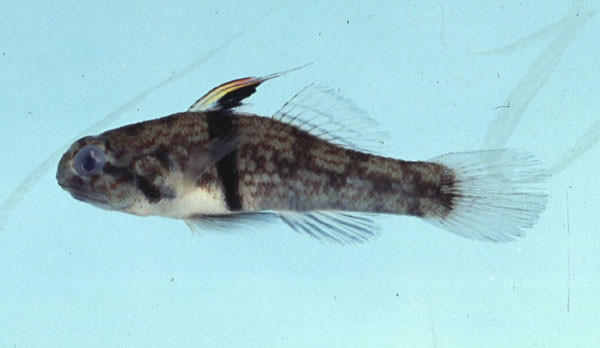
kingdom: Animalia
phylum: Chordata
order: Perciformes
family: Gobiidae
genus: Redigobius
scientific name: Redigobius balteatus
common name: Rhino-horn goby
